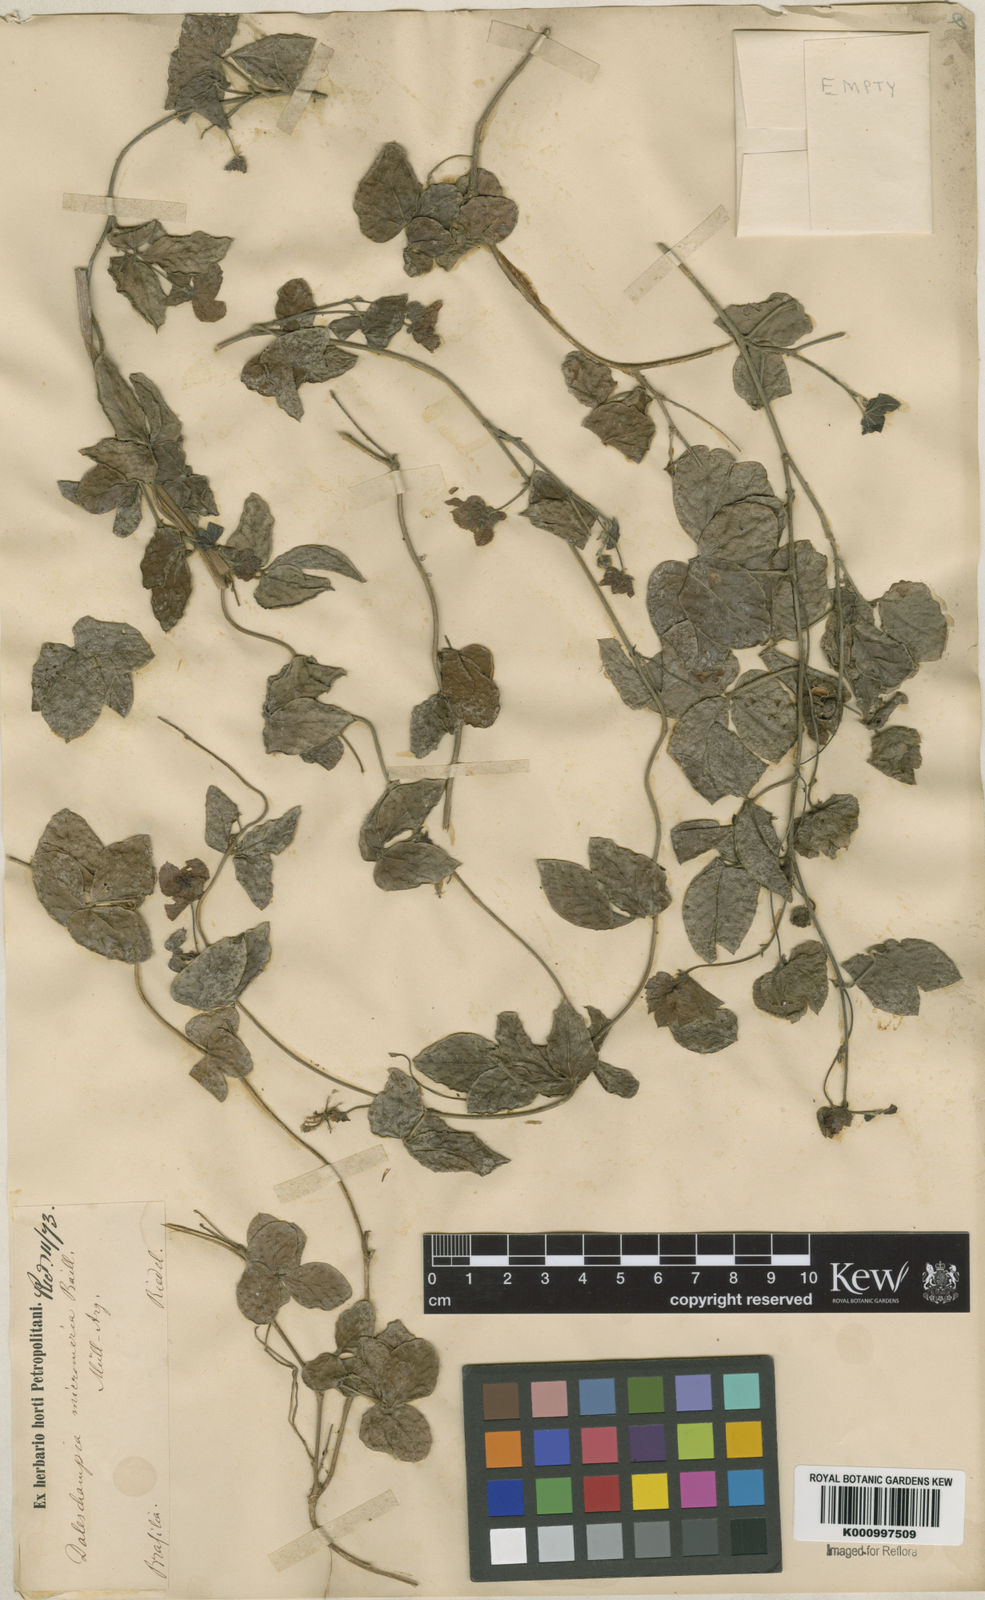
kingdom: Plantae
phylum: Tracheophyta
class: Magnoliopsida
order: Malpighiales
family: Euphorbiaceae
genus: Dalechampia
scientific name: Dalechampia micromeria
